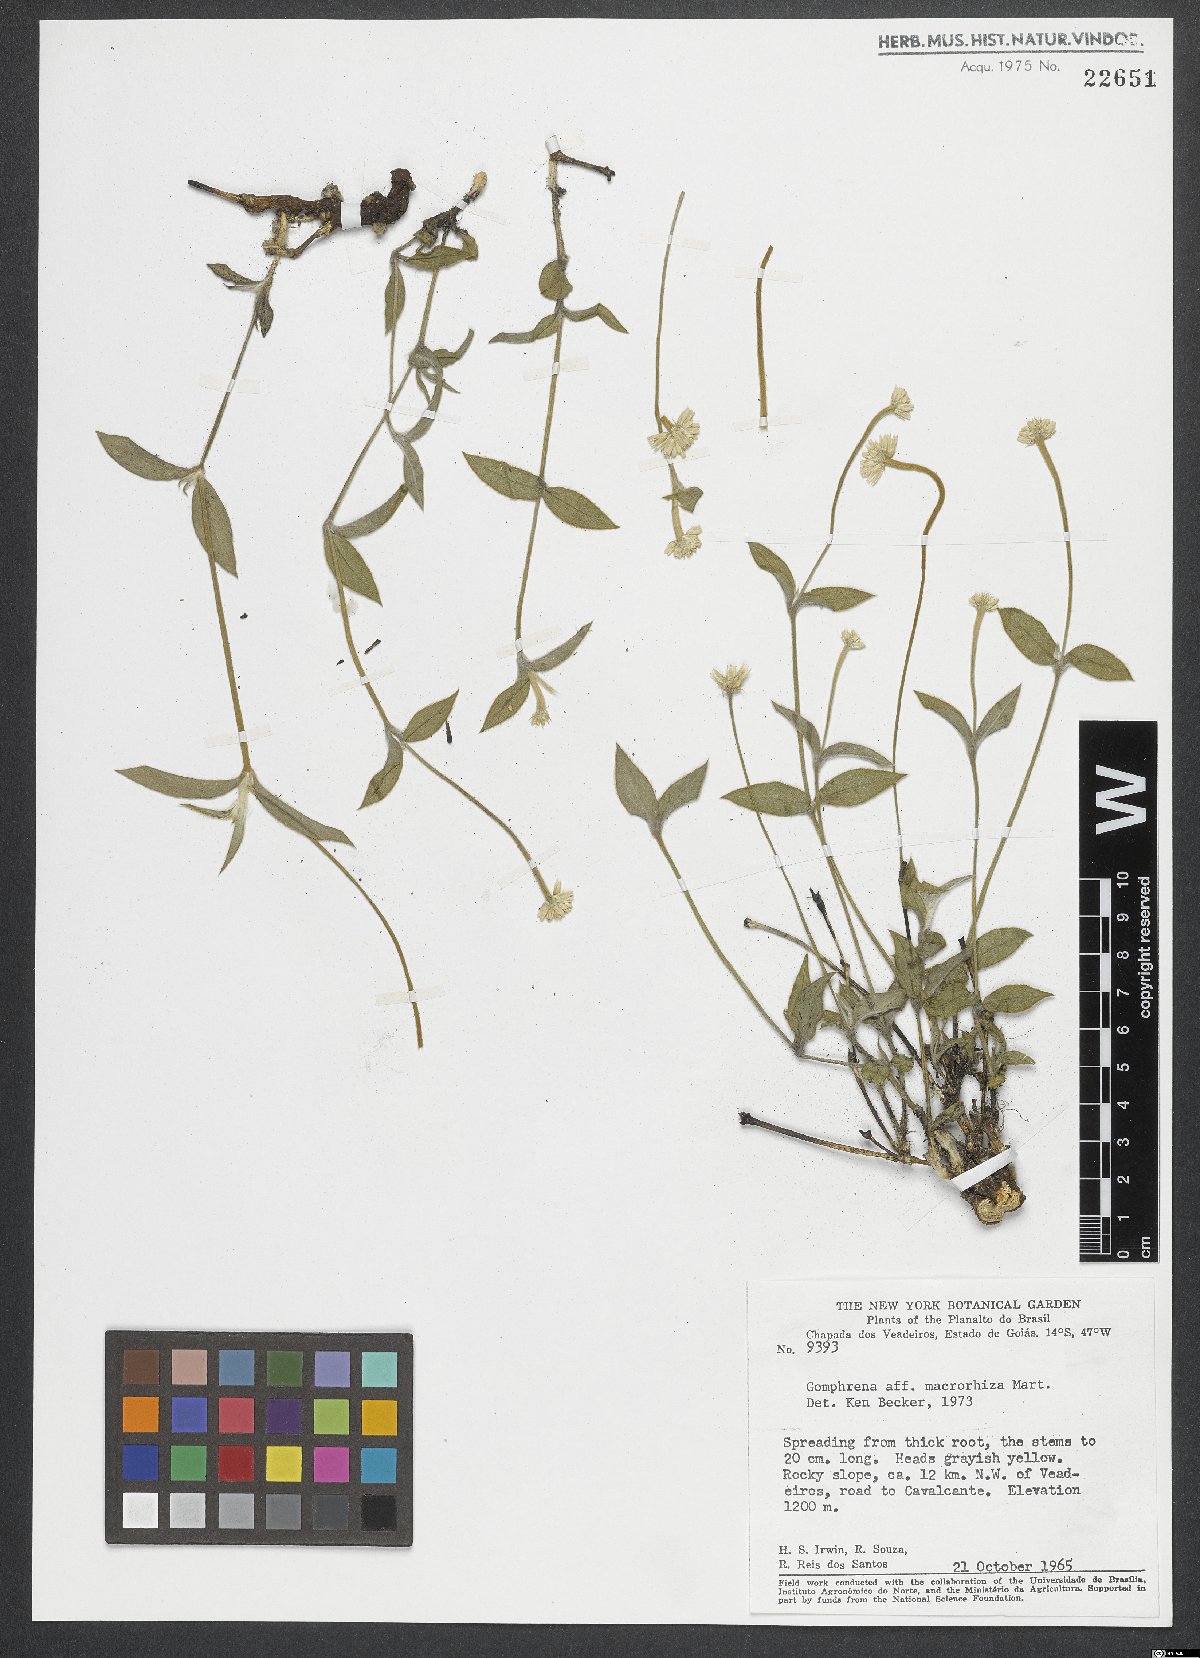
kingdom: Plantae
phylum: Tracheophyta
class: Magnoliopsida
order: Caryophyllales
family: Amaranthaceae
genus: Gomphrena
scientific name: Gomphrena macrorhiza
